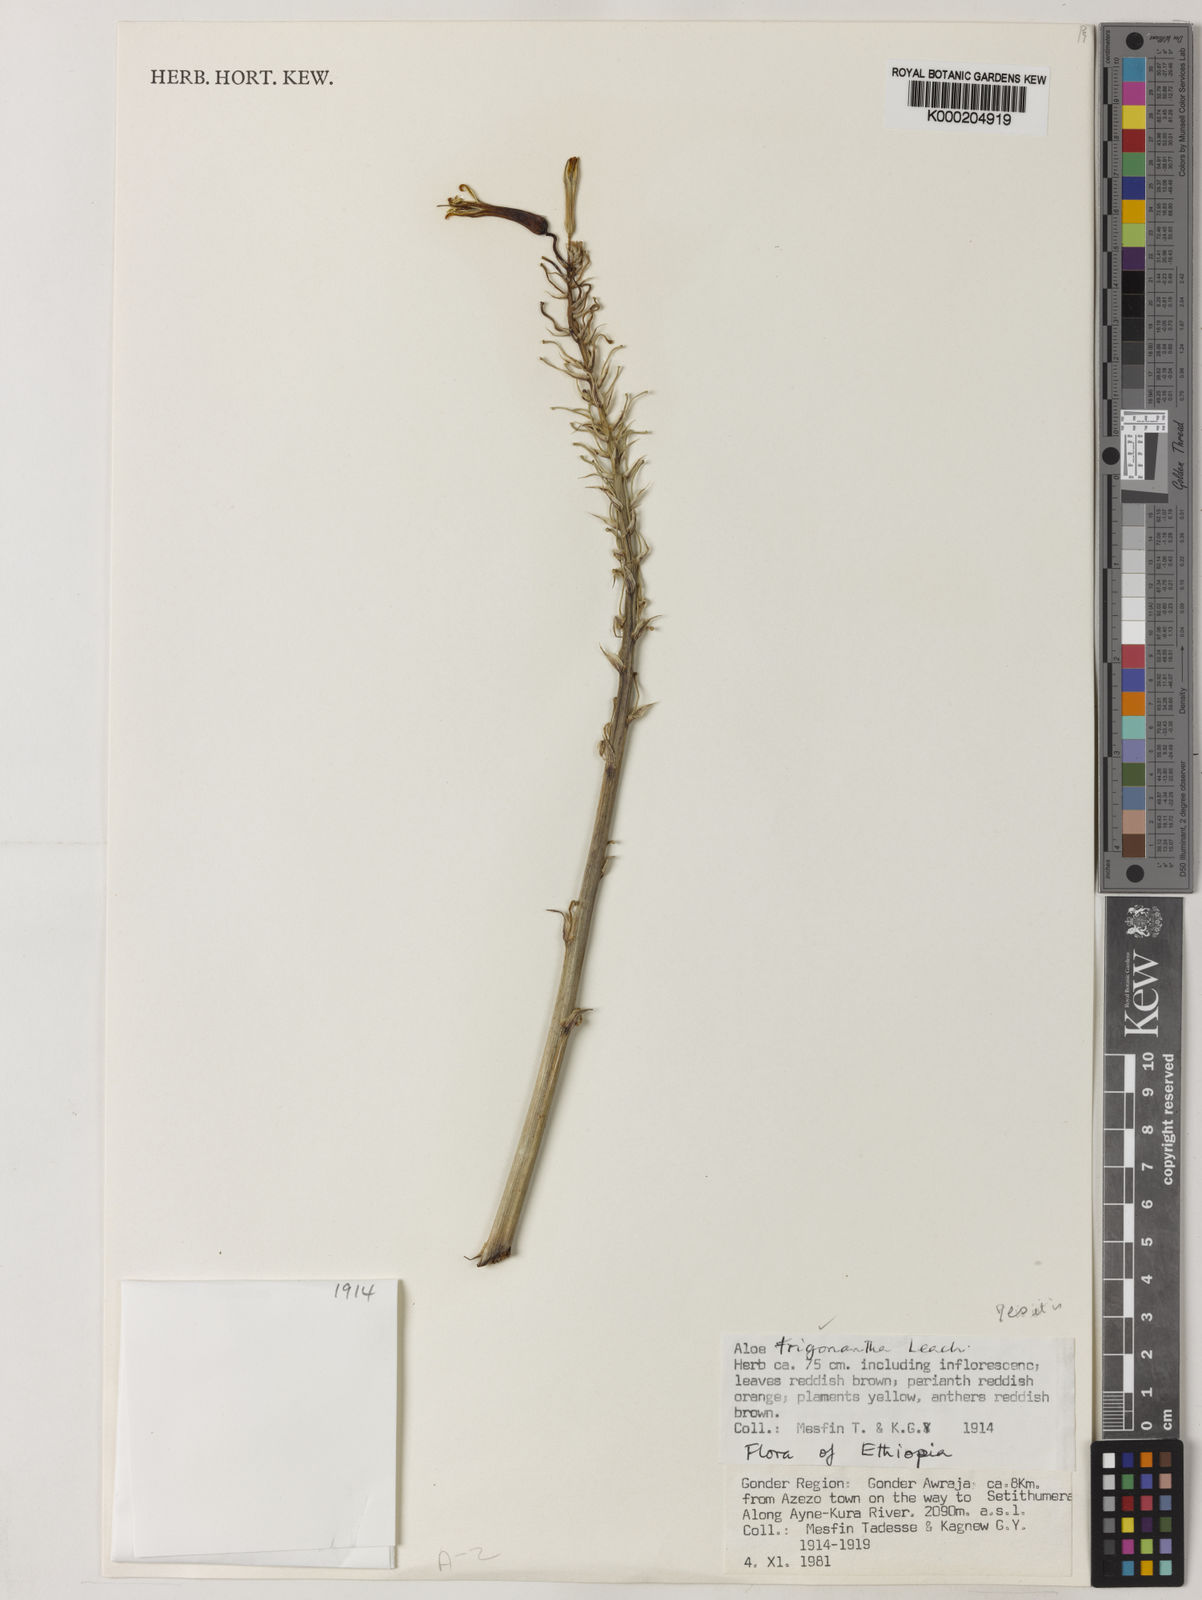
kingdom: Plantae
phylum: Tracheophyta
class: Liliopsida
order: Asparagales
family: Asphodelaceae
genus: Aloe
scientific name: Aloe trigonantha
